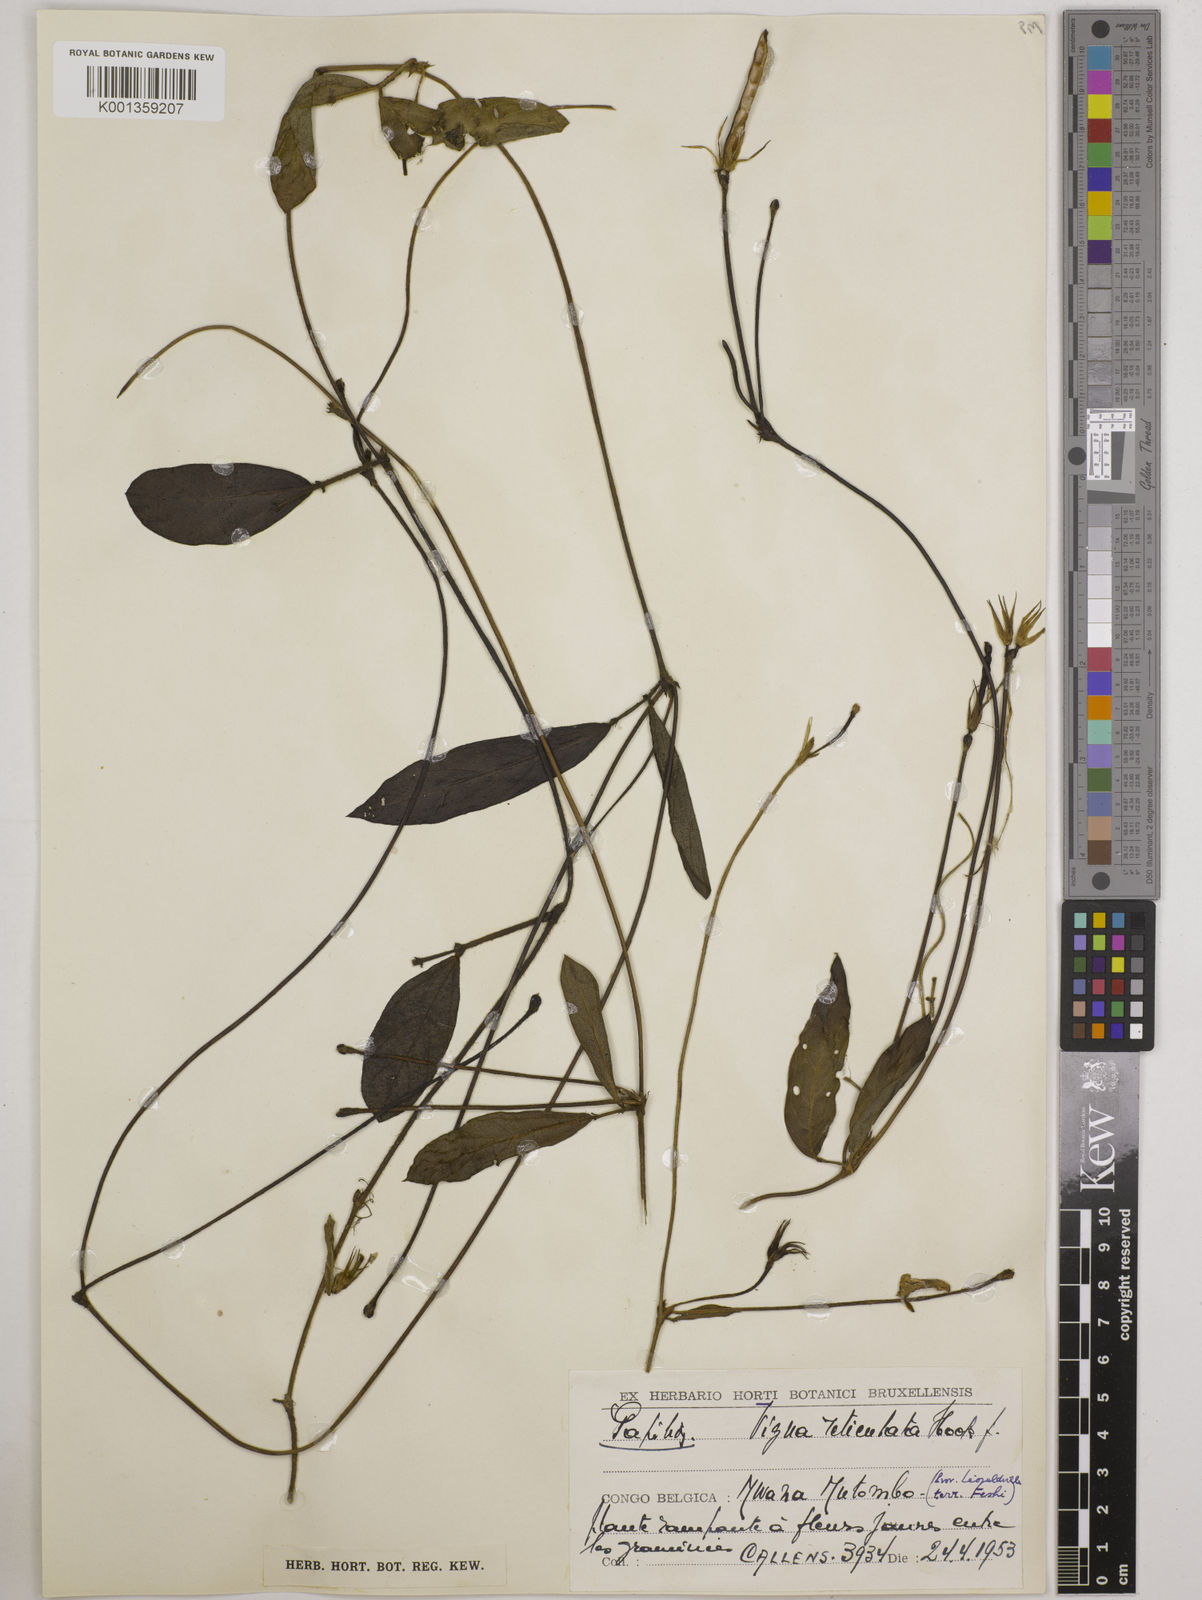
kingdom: Plantae
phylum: Tracheophyta
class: Magnoliopsida
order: Fabales
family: Fabaceae
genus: Vigna
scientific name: Vigna reticulata
